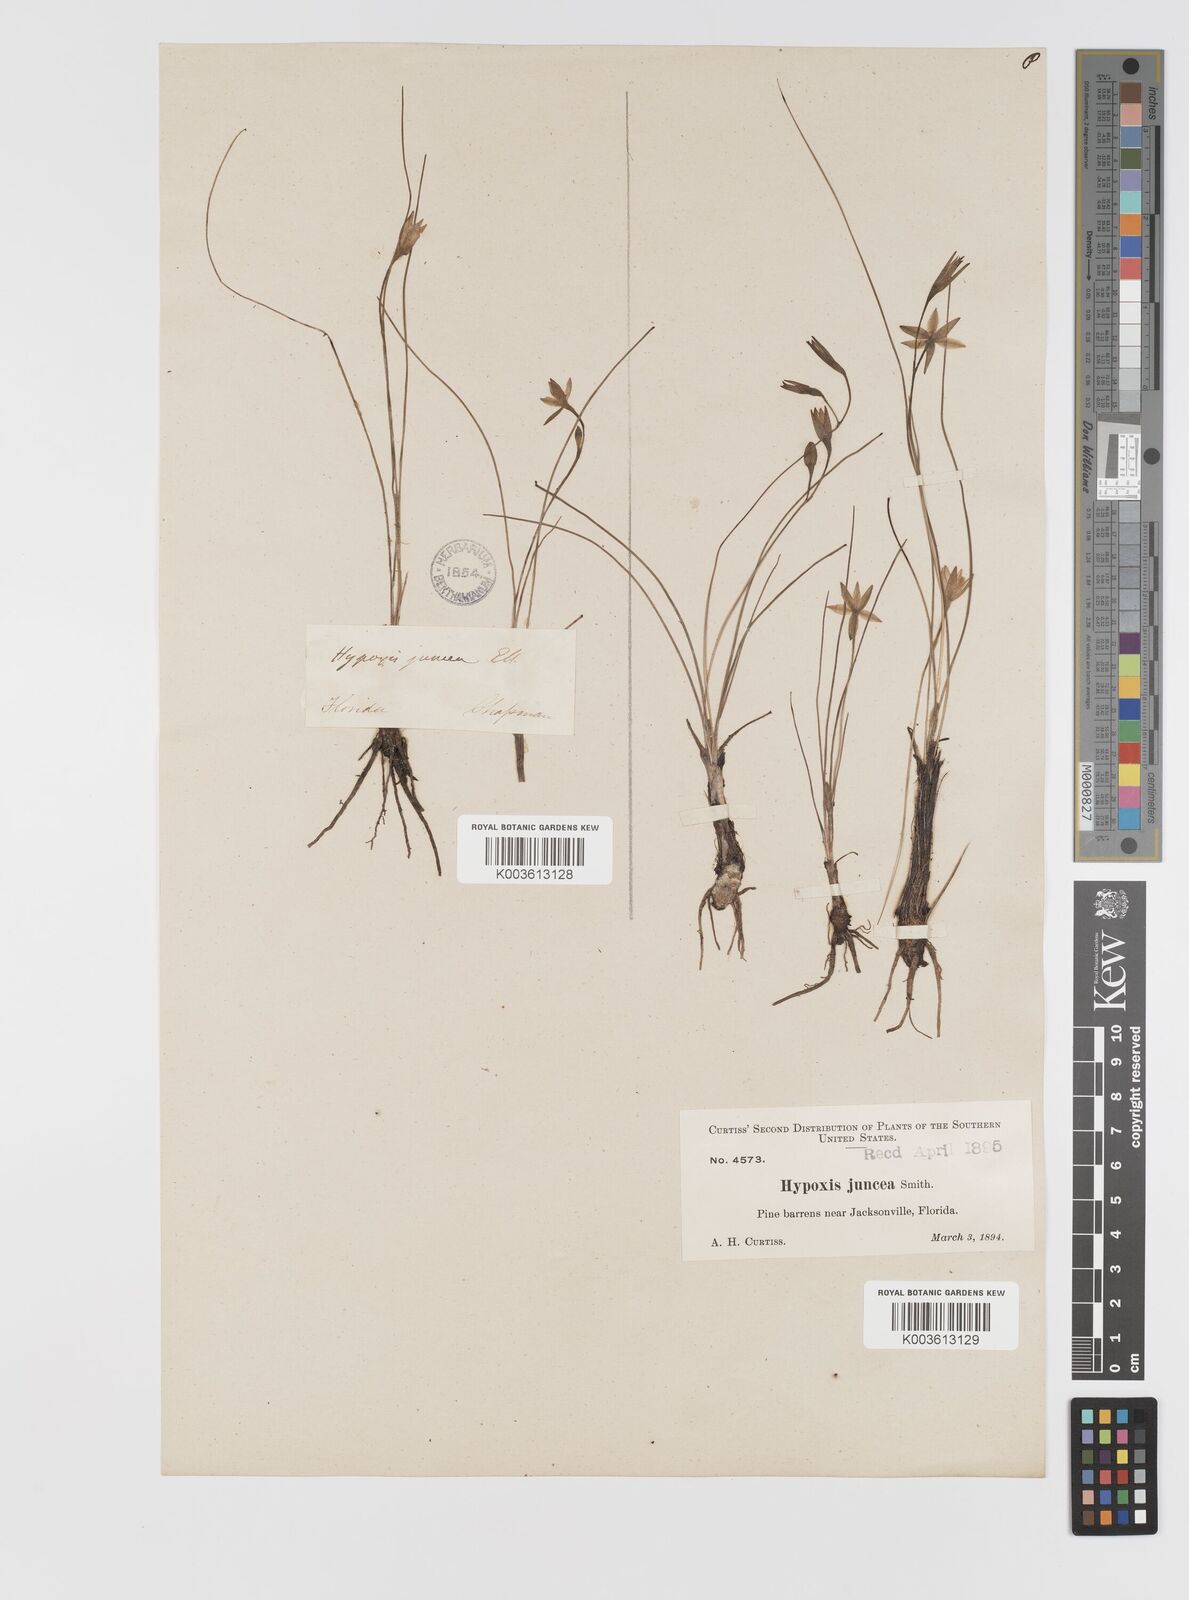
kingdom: Plantae
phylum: Tracheophyta
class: Liliopsida
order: Asparagales
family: Hypoxidaceae
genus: Hypoxis
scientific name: Hypoxis juncea
